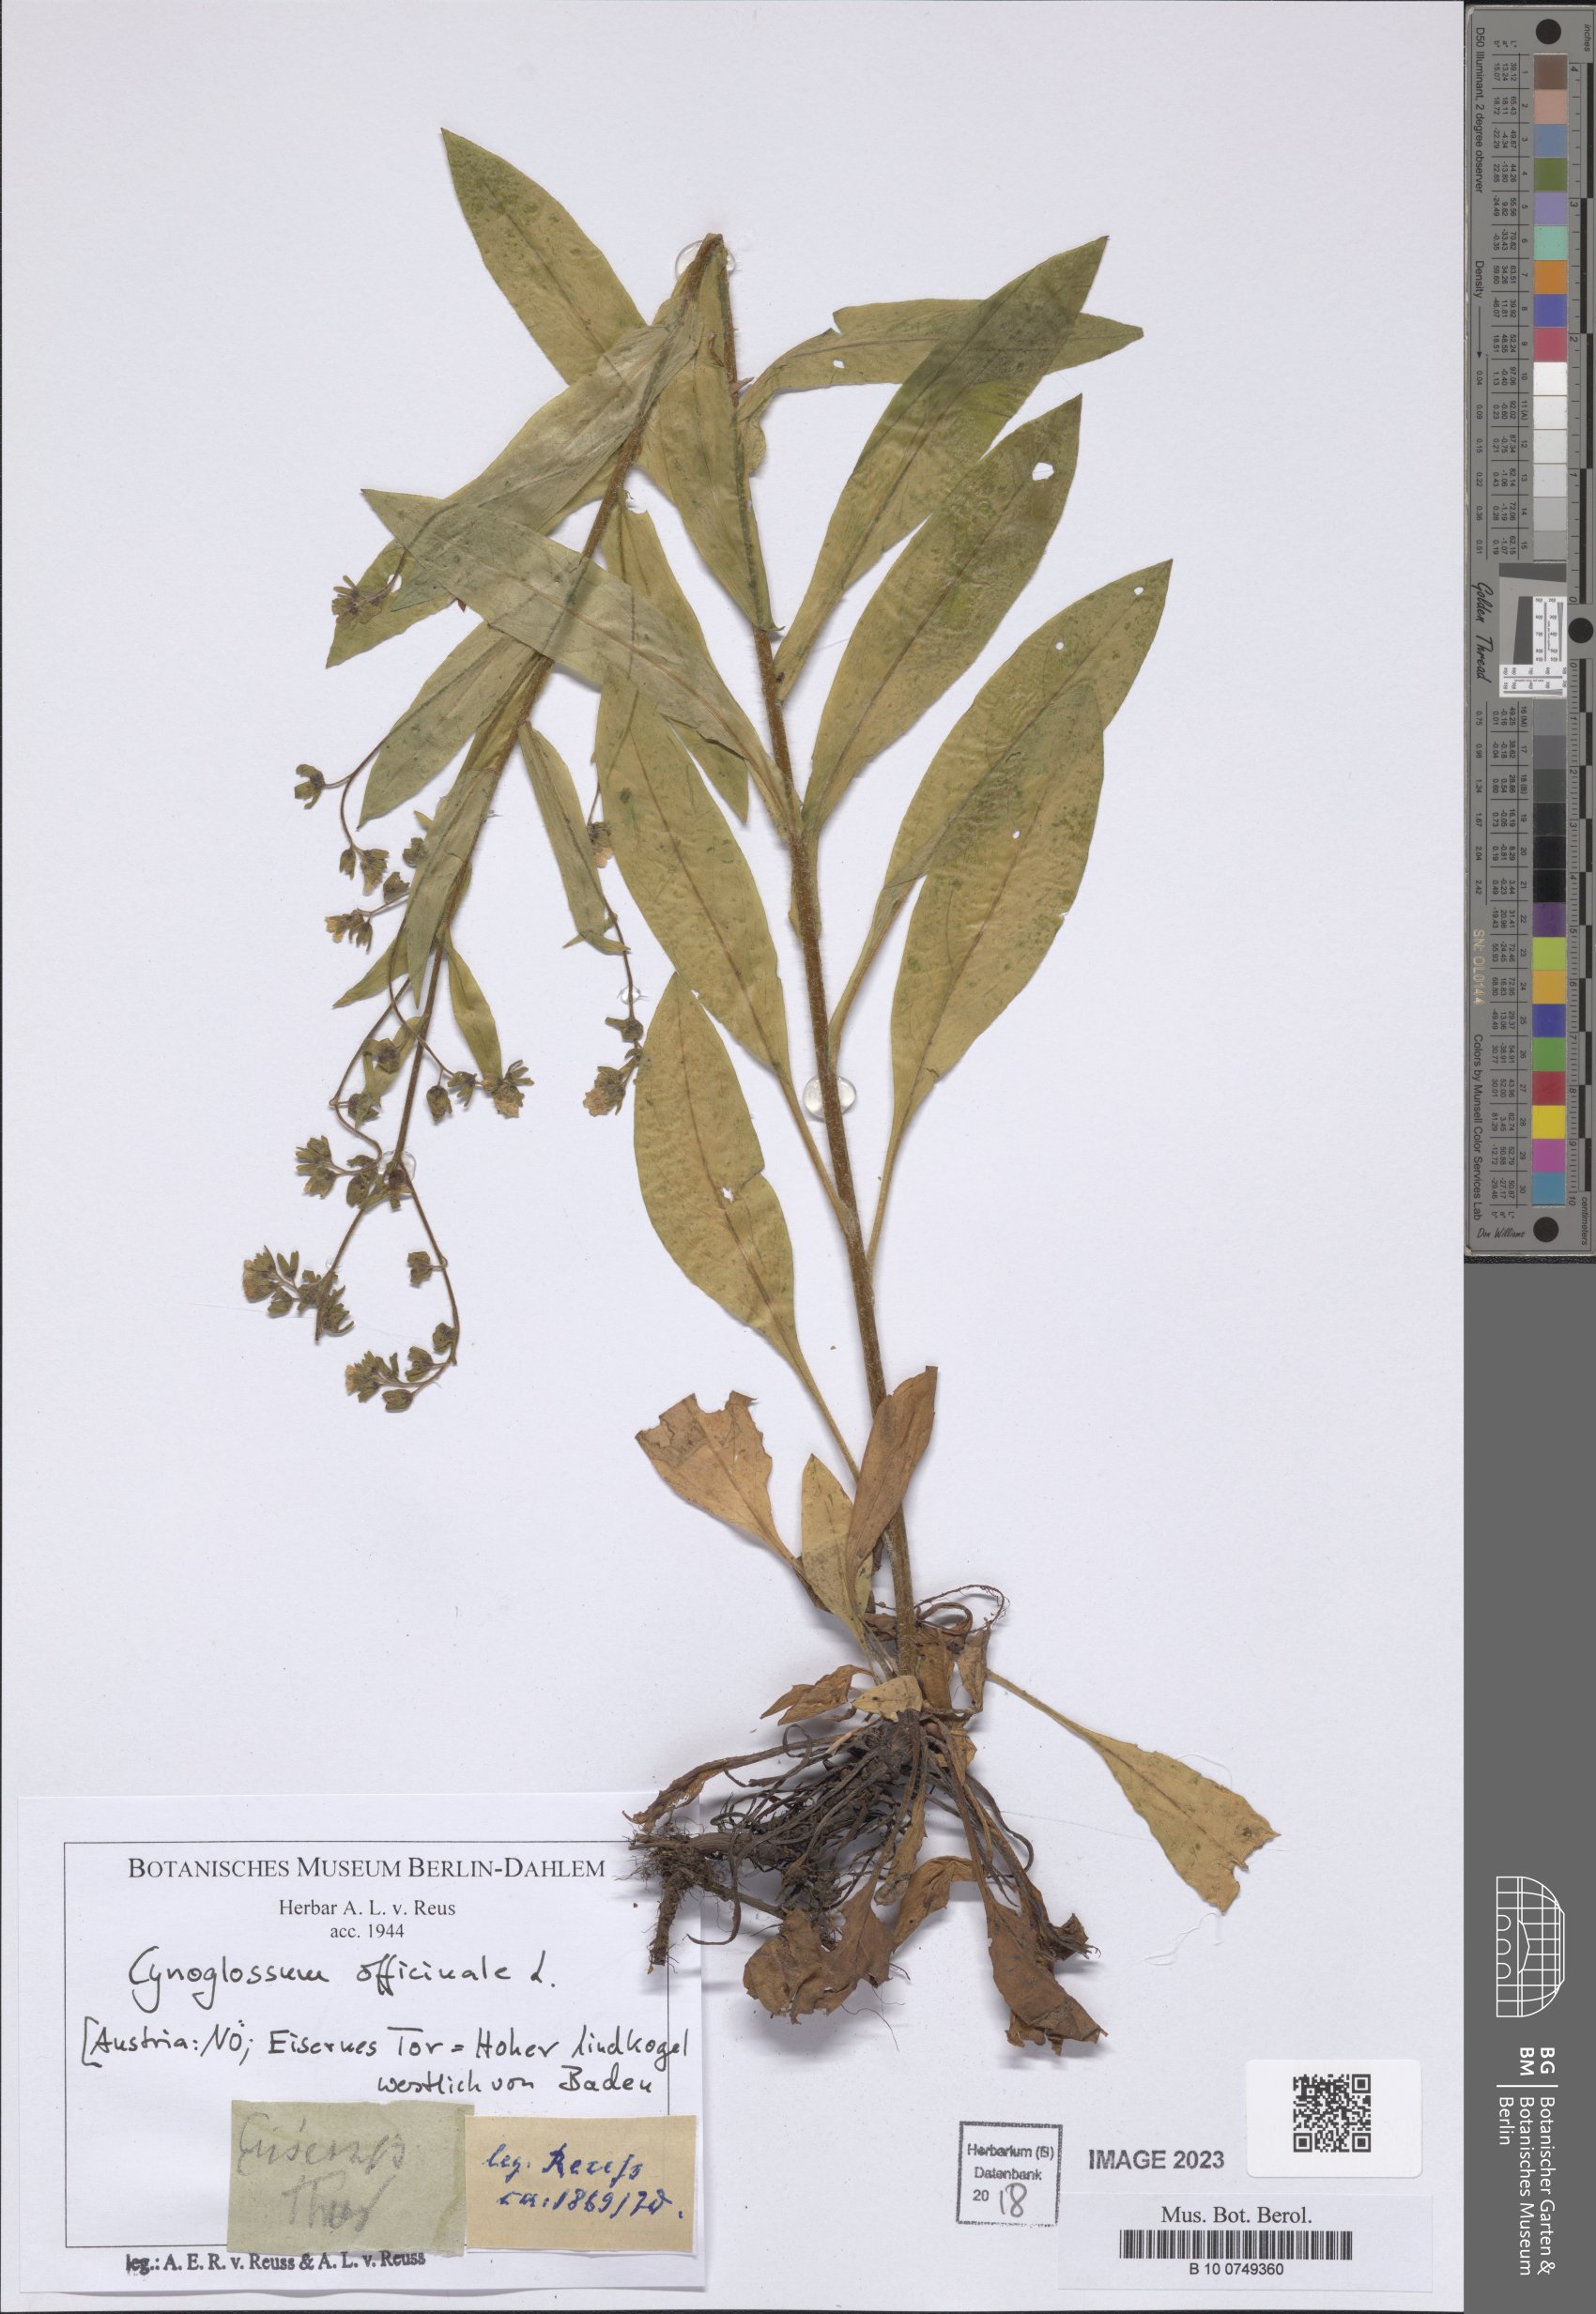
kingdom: Plantae
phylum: Tracheophyta
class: Magnoliopsida
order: Boraginales
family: Boraginaceae
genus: Cynoglossum
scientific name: Cynoglossum officinale
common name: Hound's-tongue
